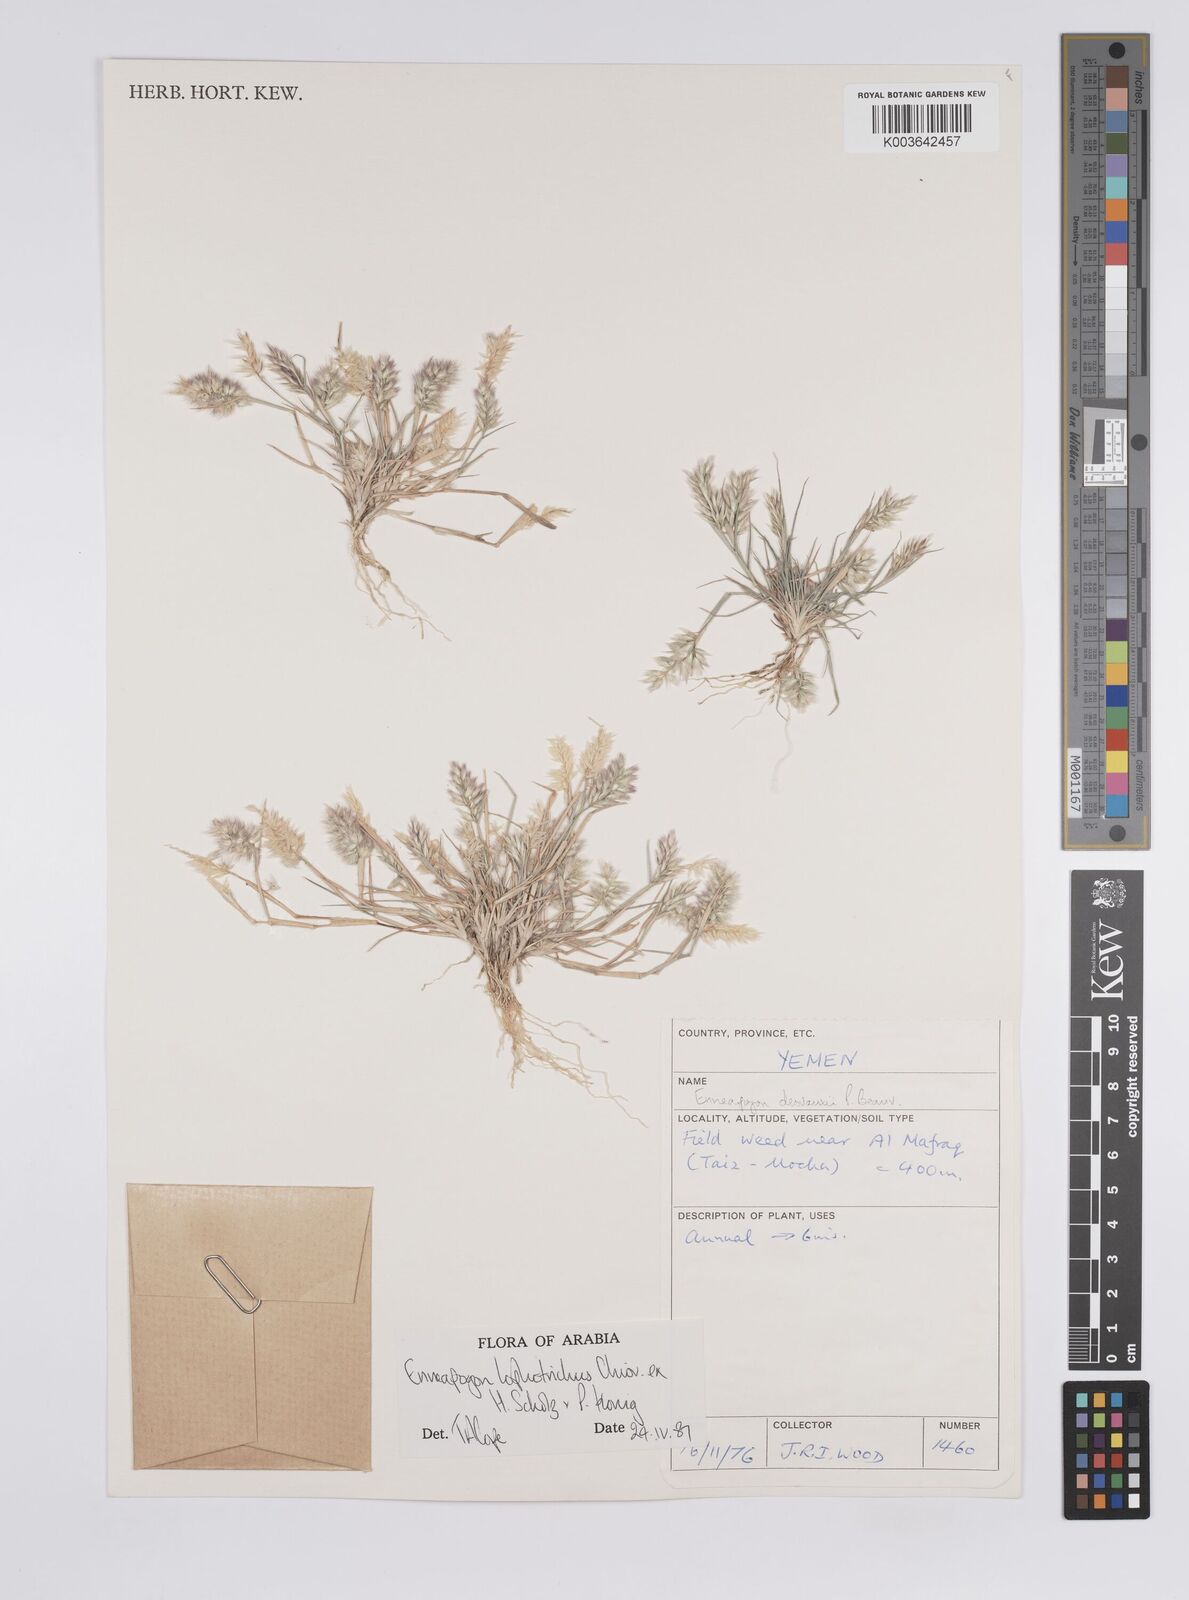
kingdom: Plantae
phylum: Tracheophyta
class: Liliopsida
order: Poales
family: Poaceae
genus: Enneapogon
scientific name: Enneapogon lophotrichus
